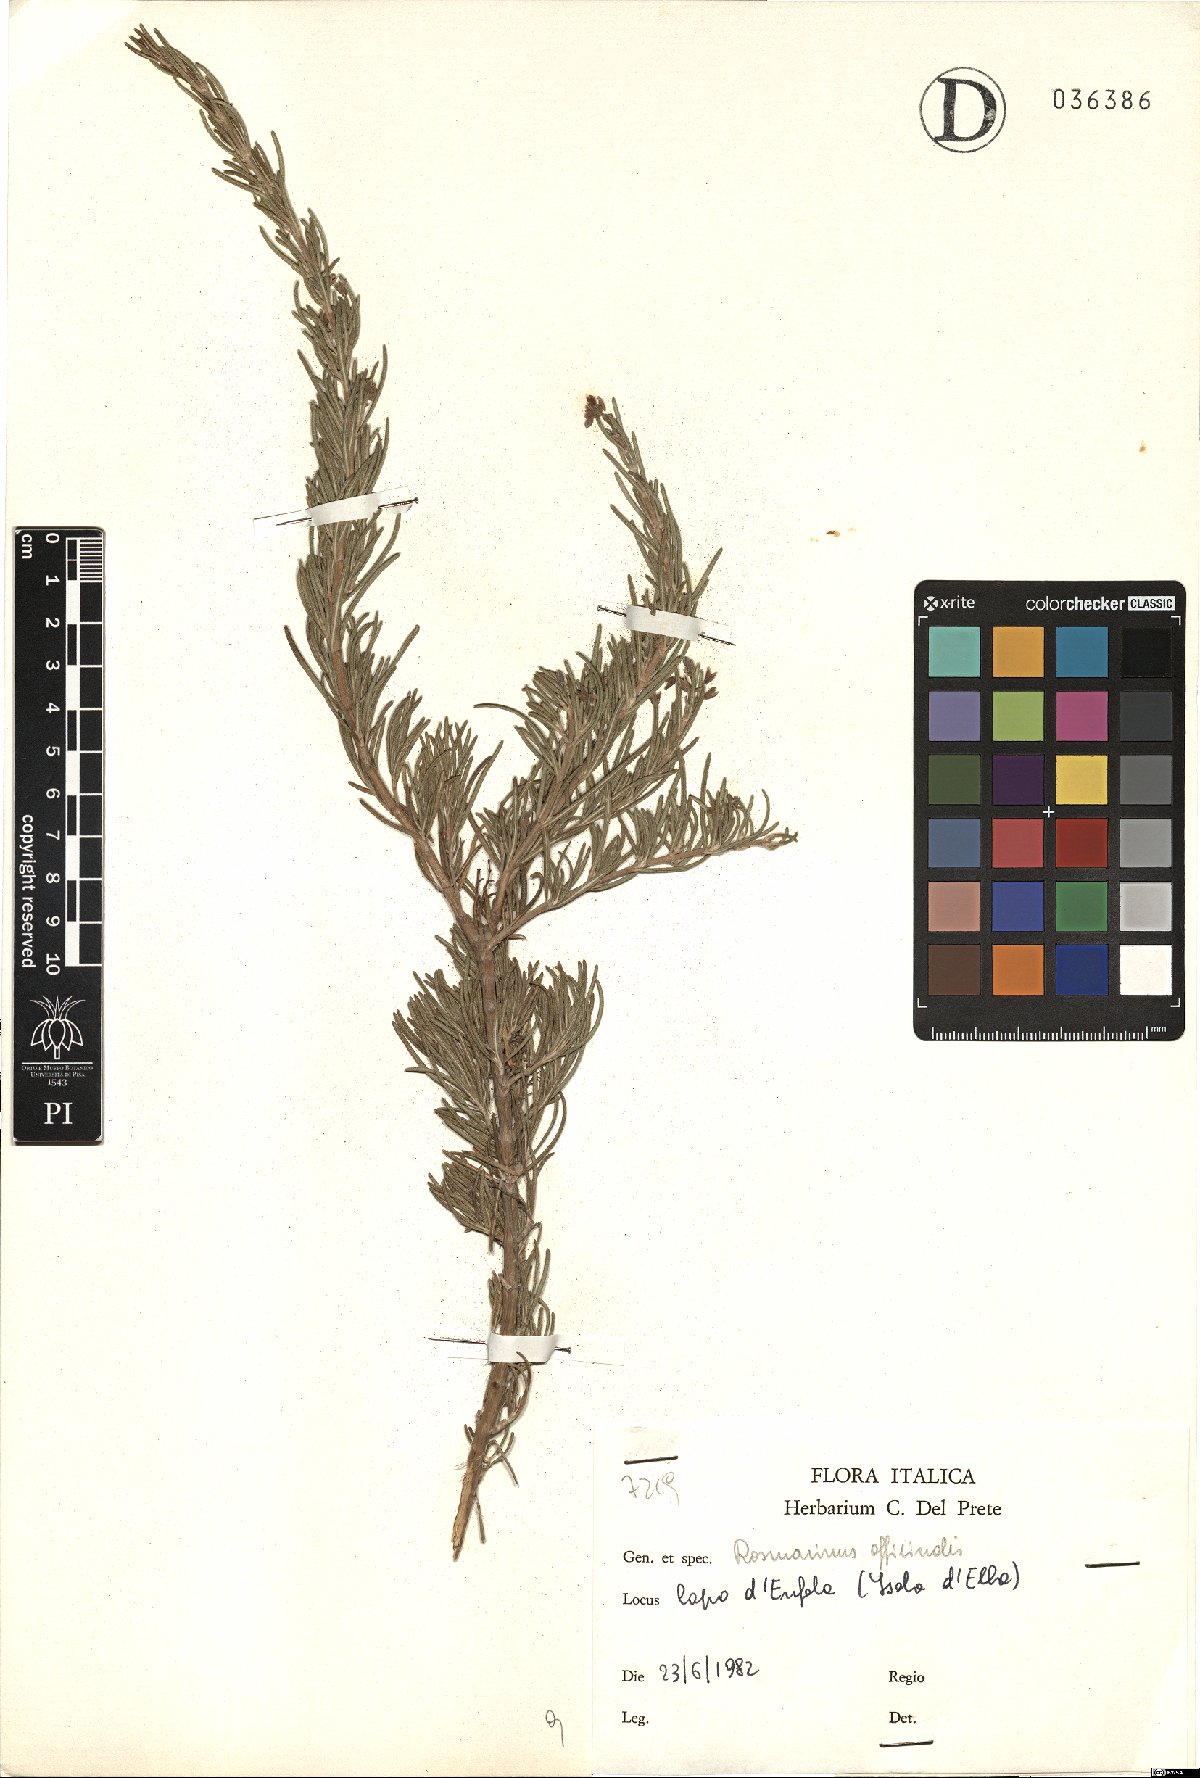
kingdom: Plantae
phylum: Tracheophyta
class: Magnoliopsida
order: Lamiales
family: Lamiaceae
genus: Salvia
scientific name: Salvia rosmarinus
